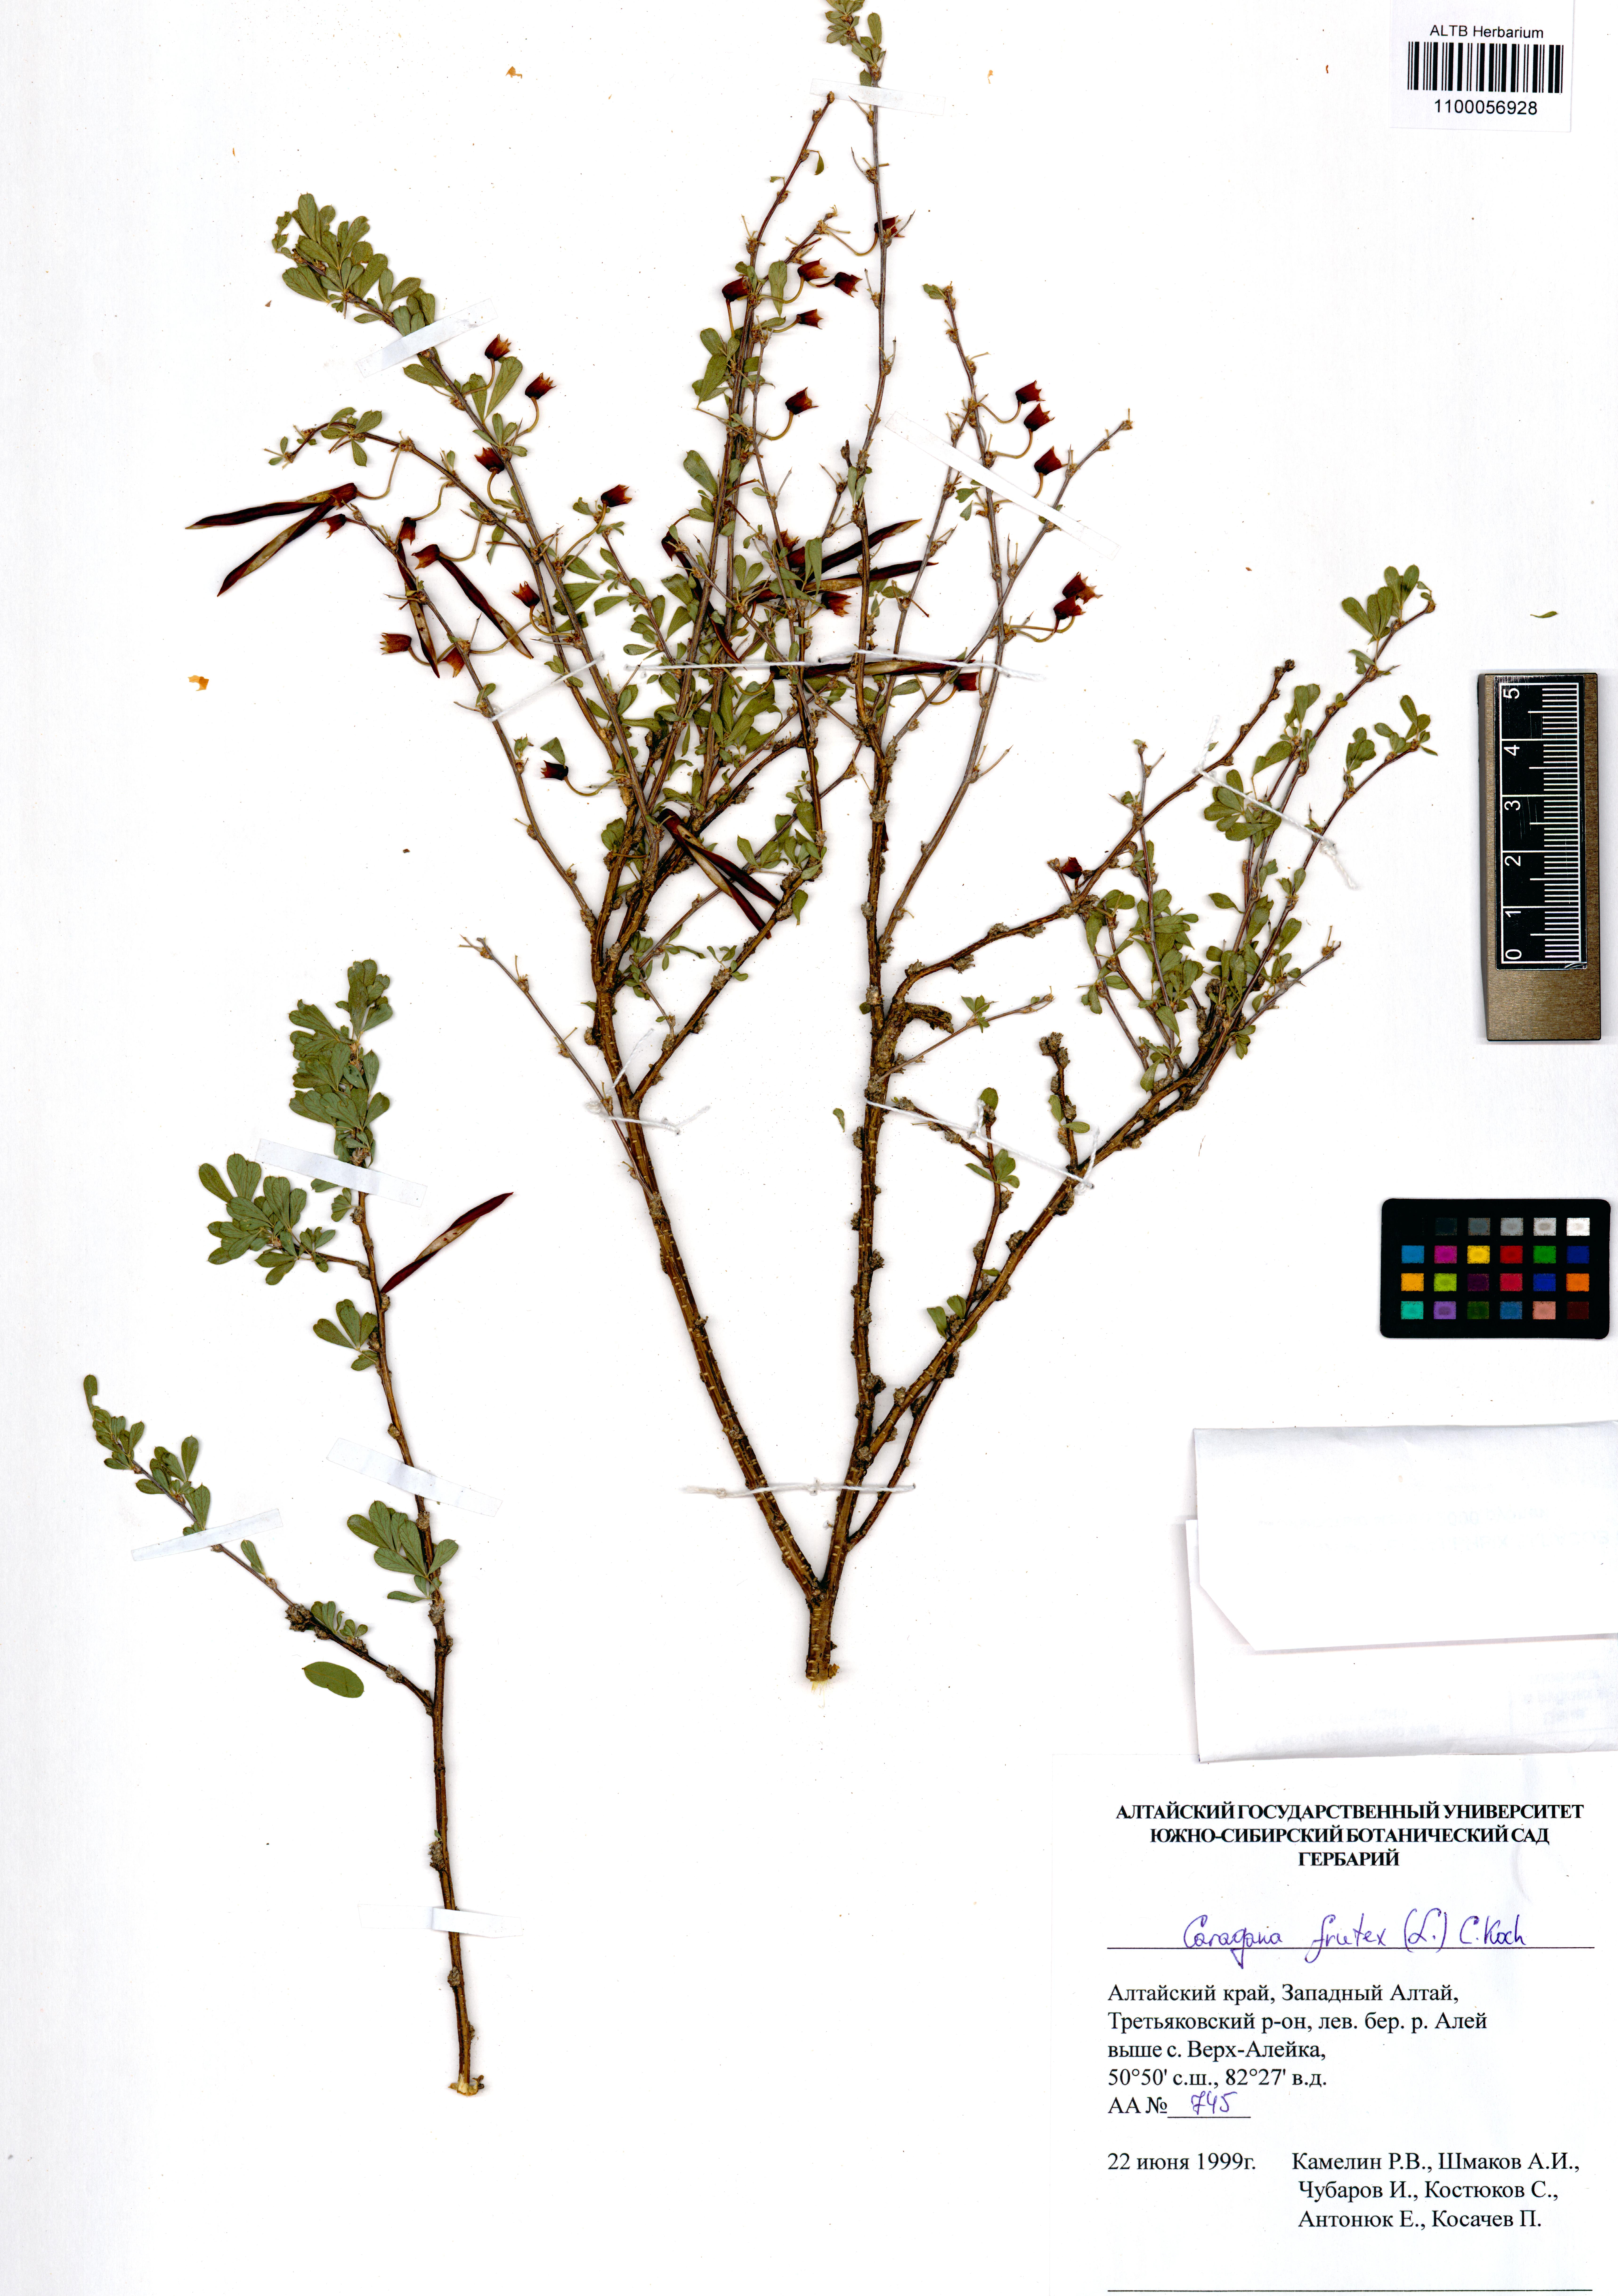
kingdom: Plantae
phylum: Tracheophyta
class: Magnoliopsida
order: Fabales
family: Fabaceae
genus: Caragana
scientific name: Caragana frutex
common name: Russian peashrub
